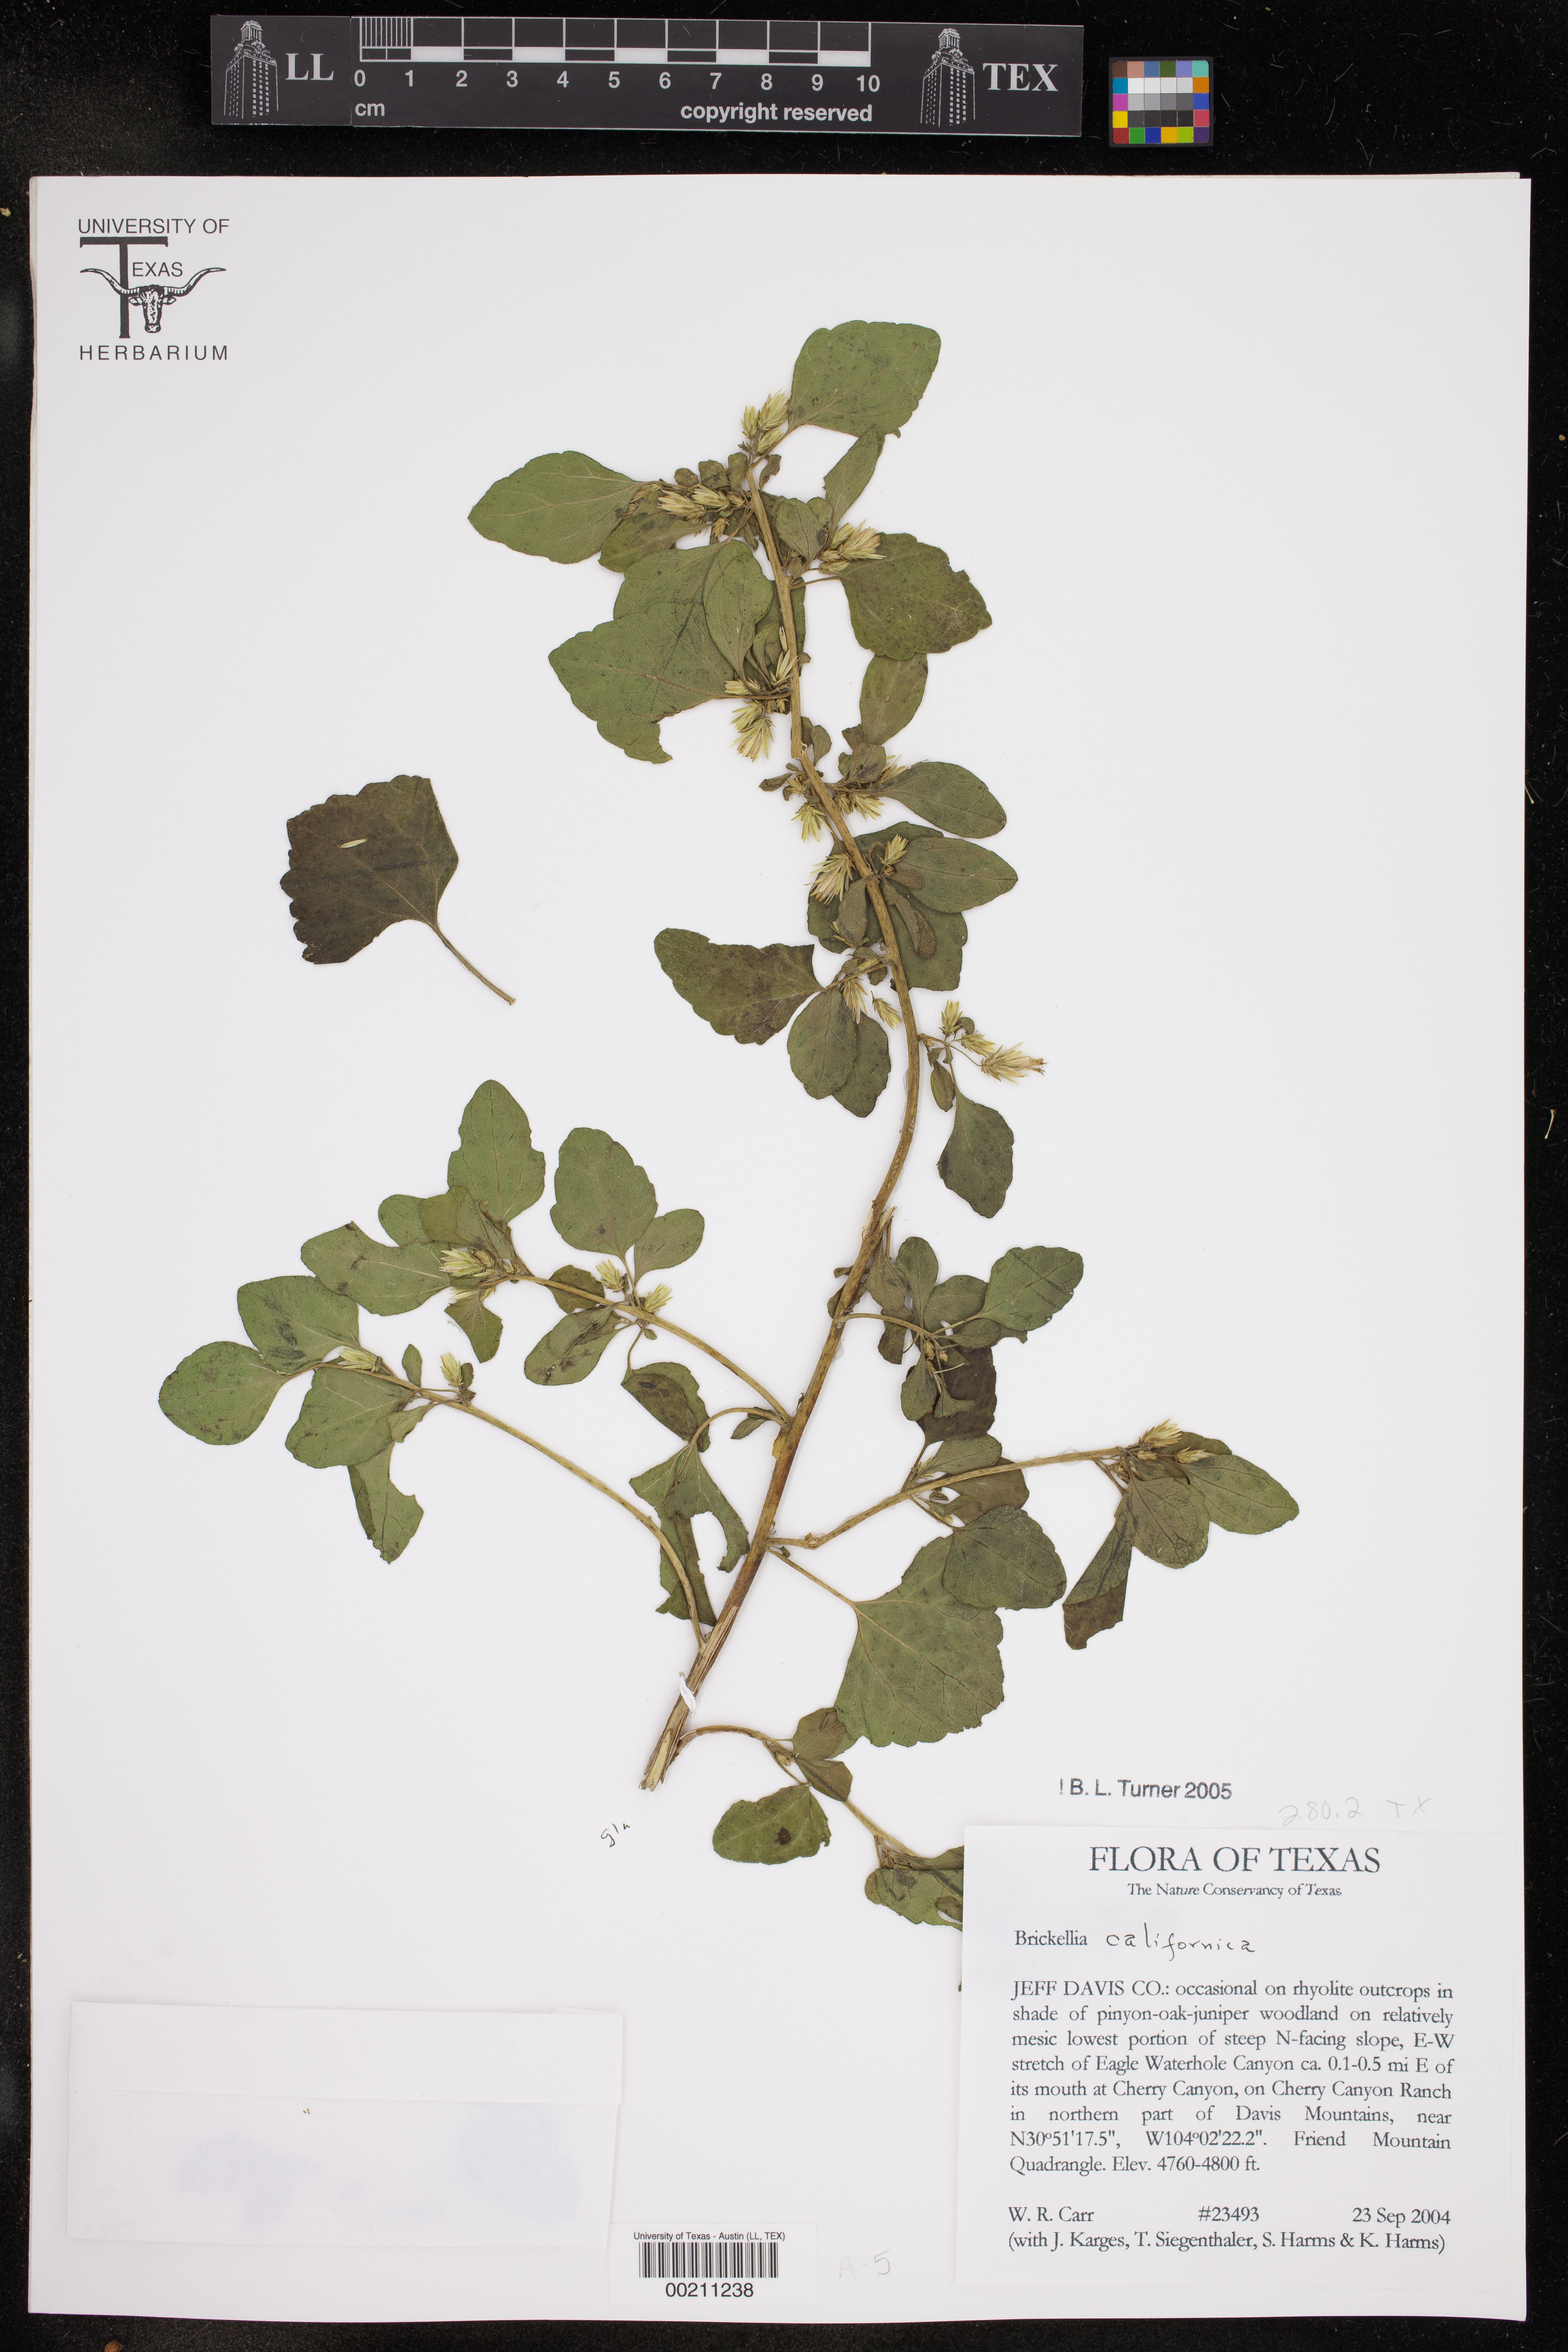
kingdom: Plantae
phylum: Tracheophyta
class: Magnoliopsida
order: Asterales
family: Asteraceae
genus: Brickellia
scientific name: Brickellia californica
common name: California brickellbush
